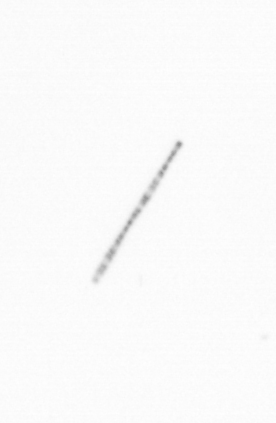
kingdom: Chromista
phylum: Ochrophyta
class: Bacillariophyceae
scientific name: Bacillariophyceae
